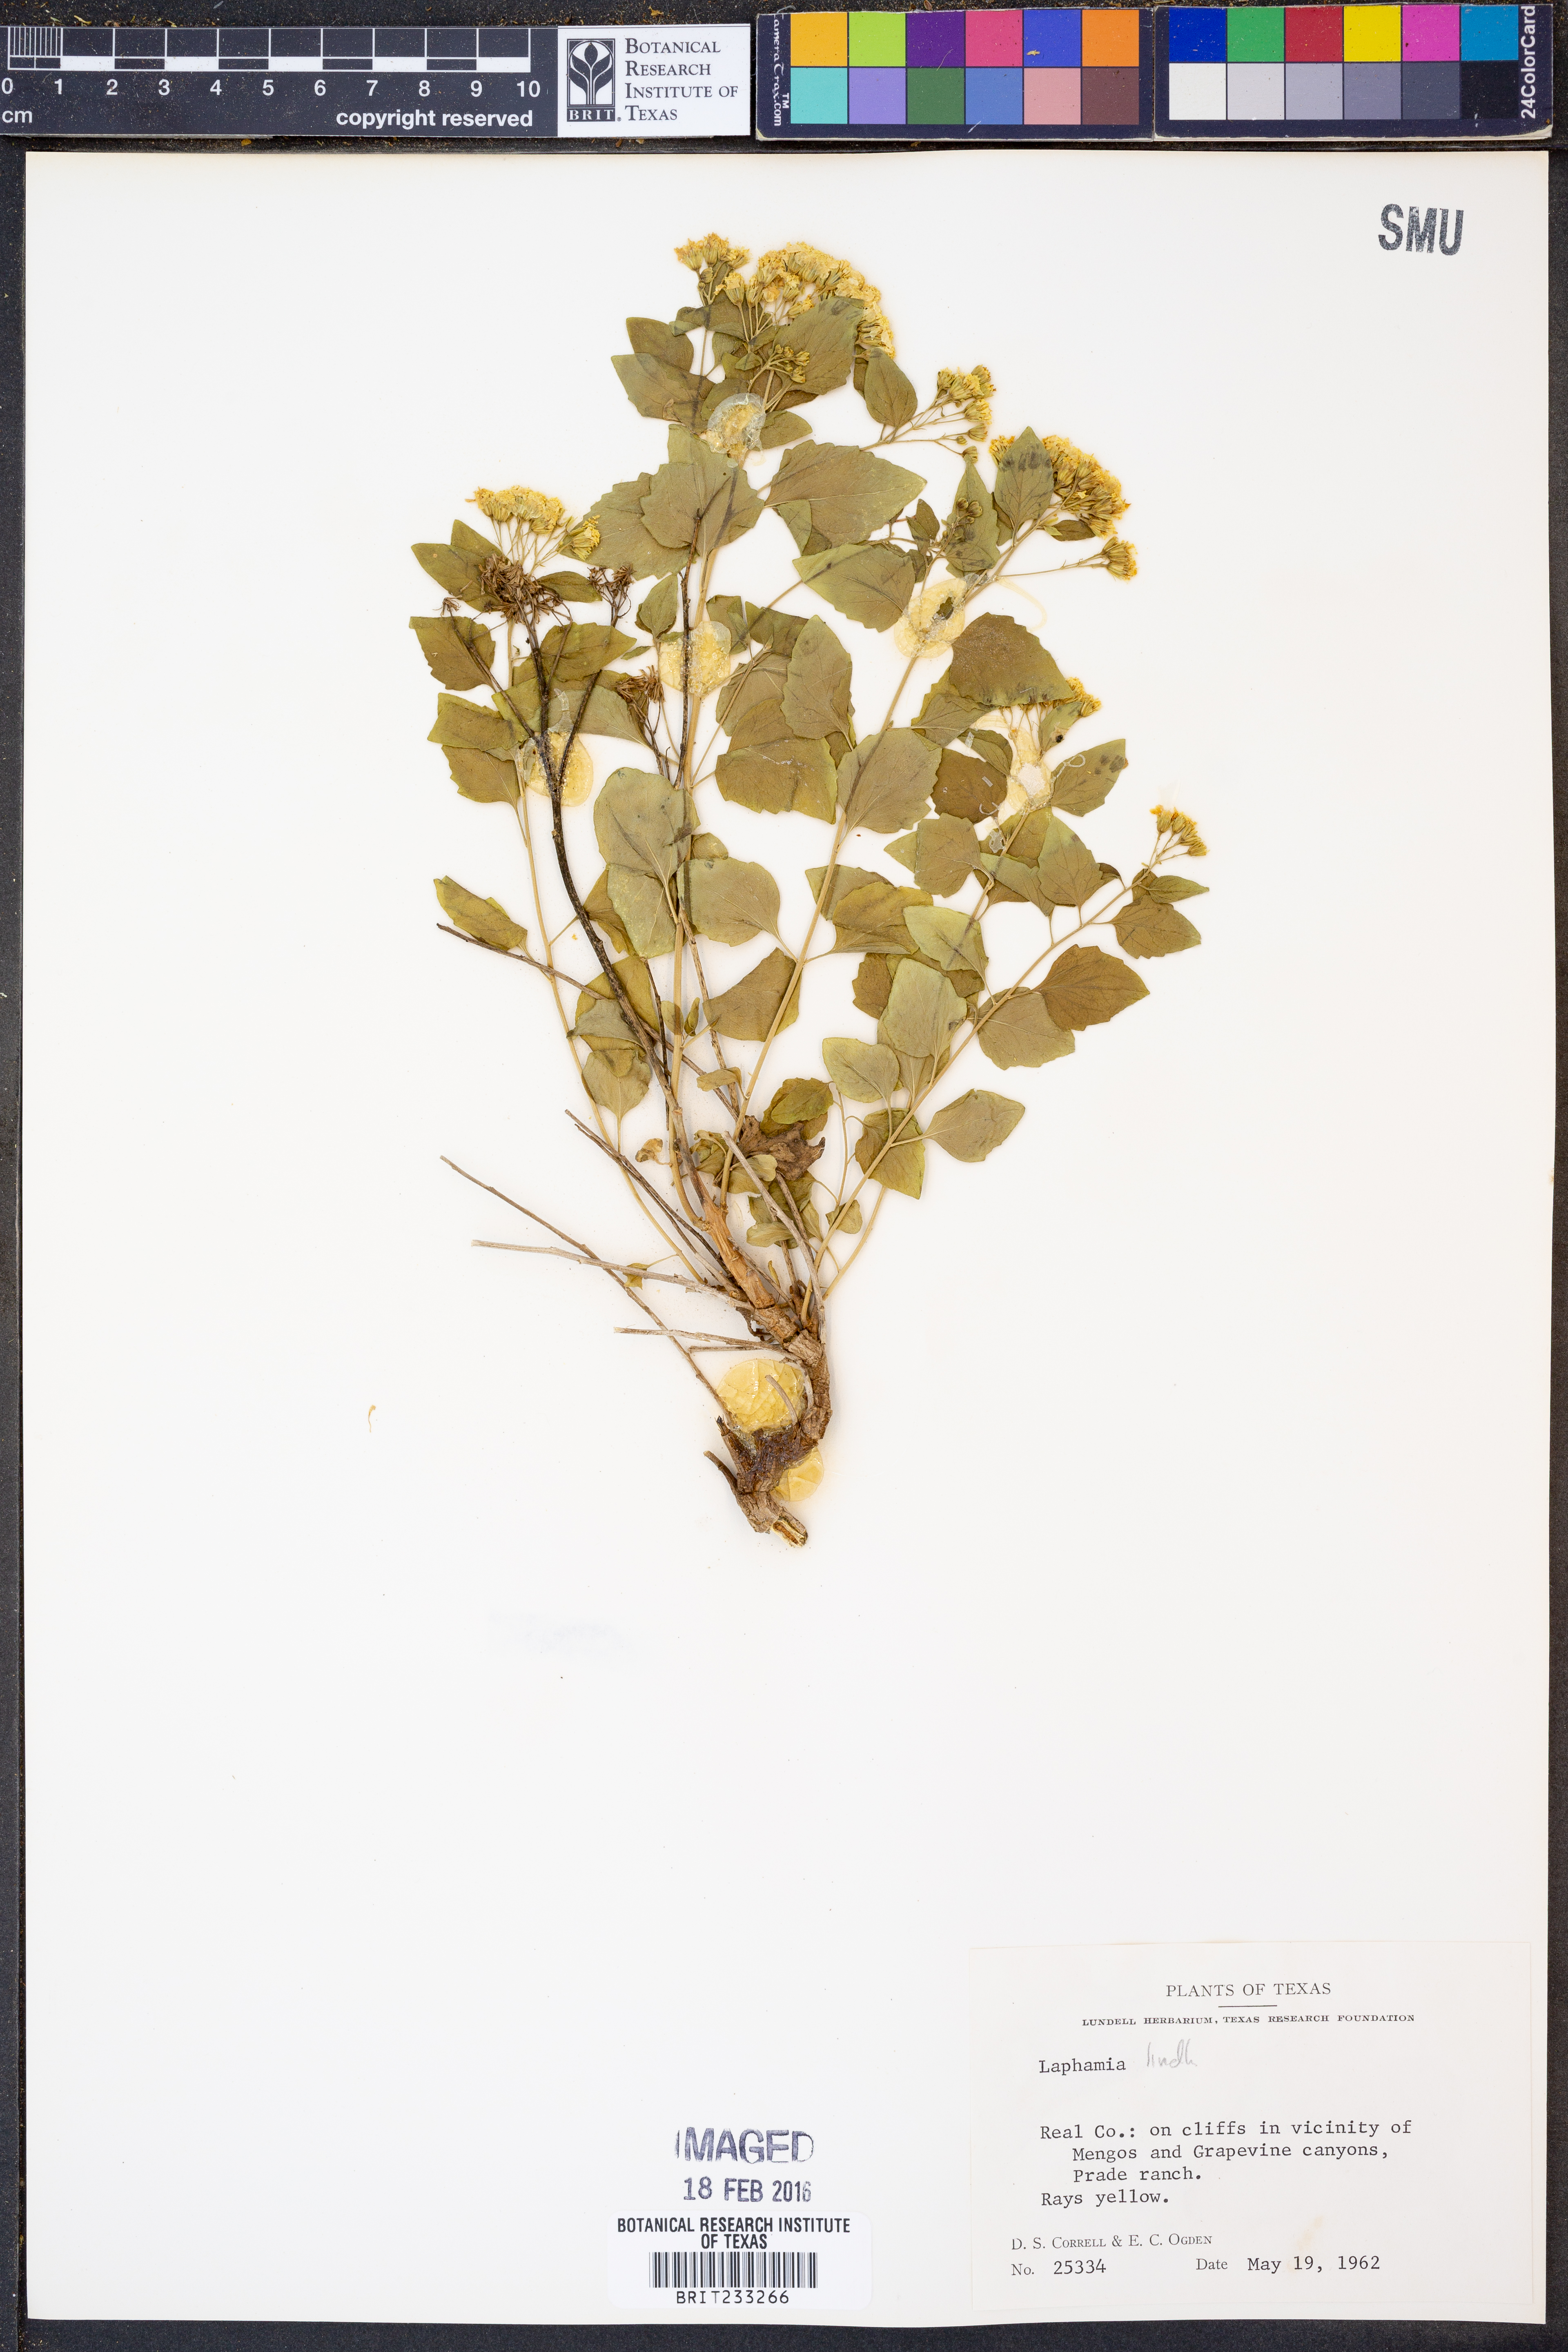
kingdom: Plantae
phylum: Tracheophyta
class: Magnoliopsida
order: Asterales
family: Asteraceae
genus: Laphamia
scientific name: Laphamia lindheimeri
